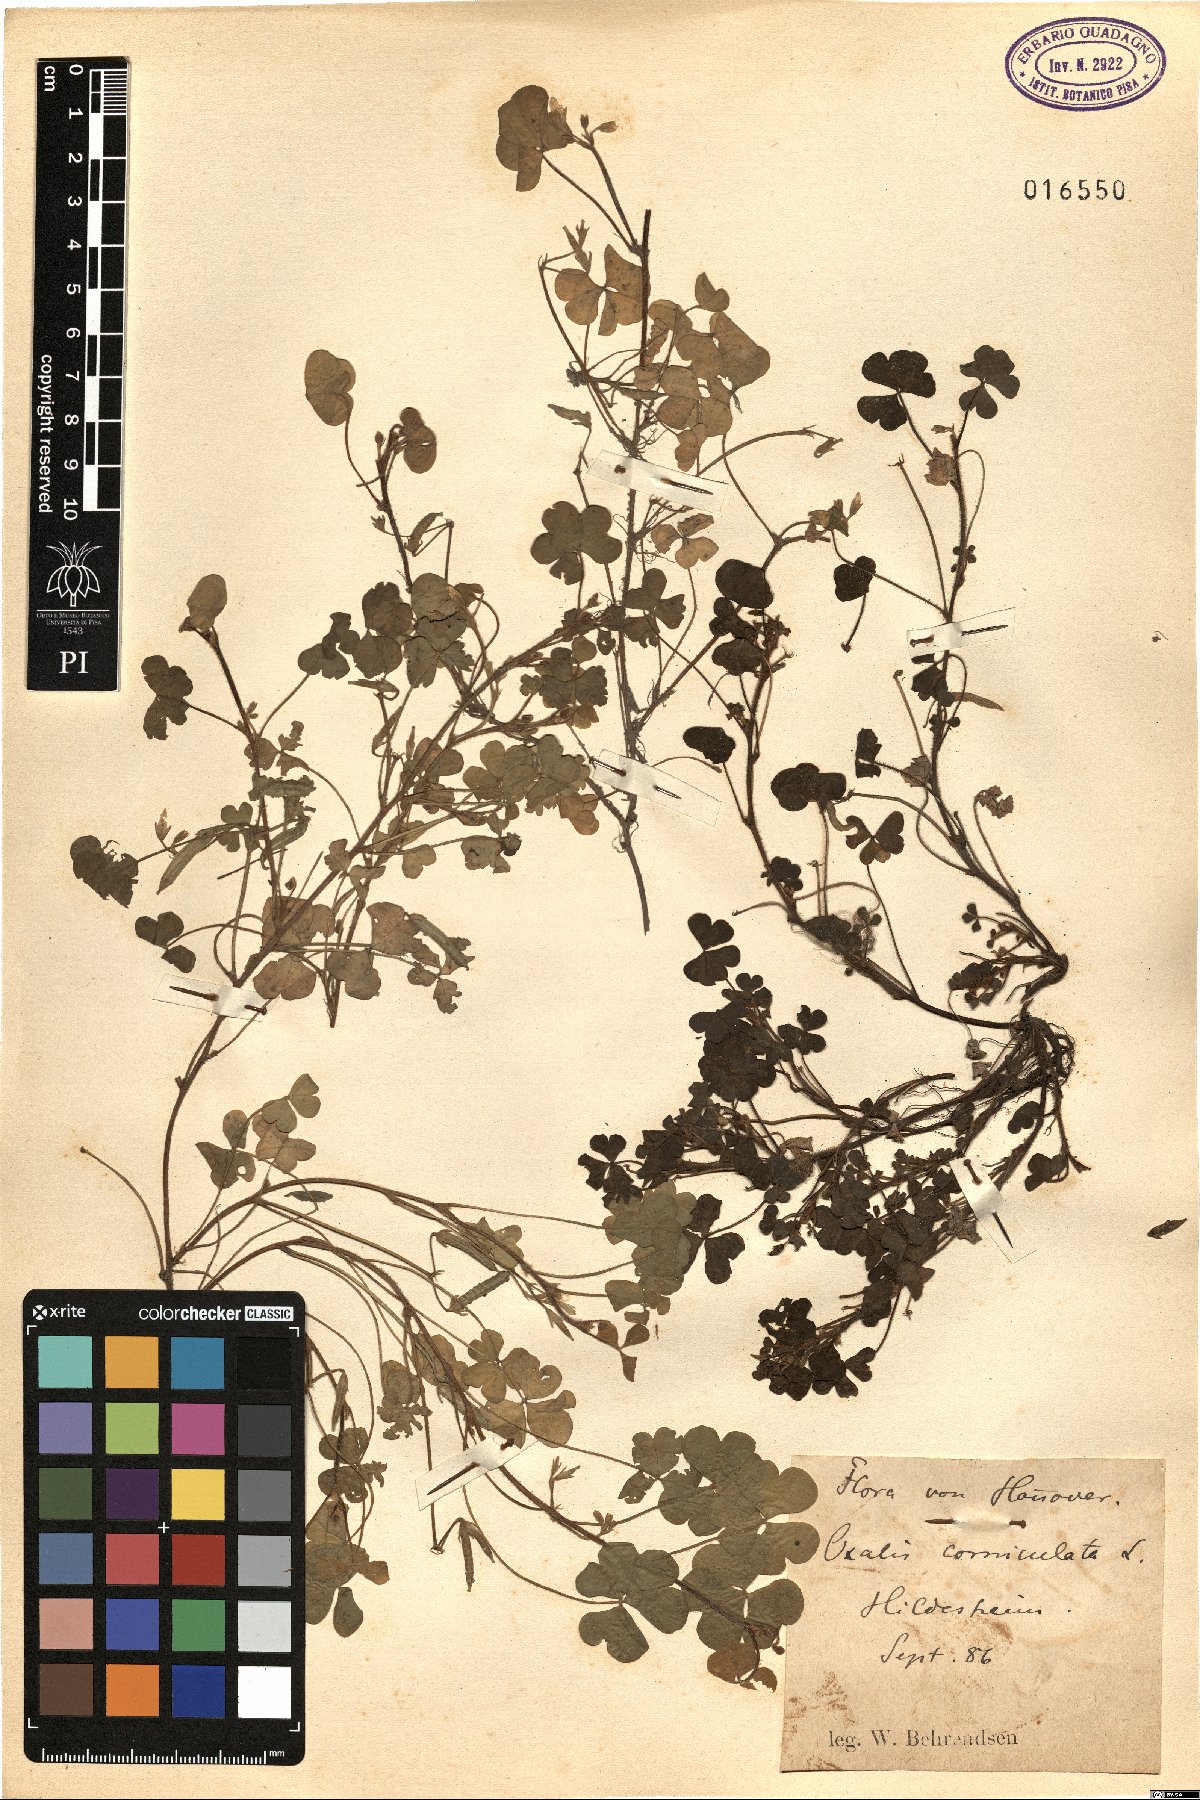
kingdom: Plantae
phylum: Tracheophyta
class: Magnoliopsida
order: Oxalidales
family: Oxalidaceae
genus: Oxalis
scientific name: Oxalis corniculata
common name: Procumbent yellow-sorrel
